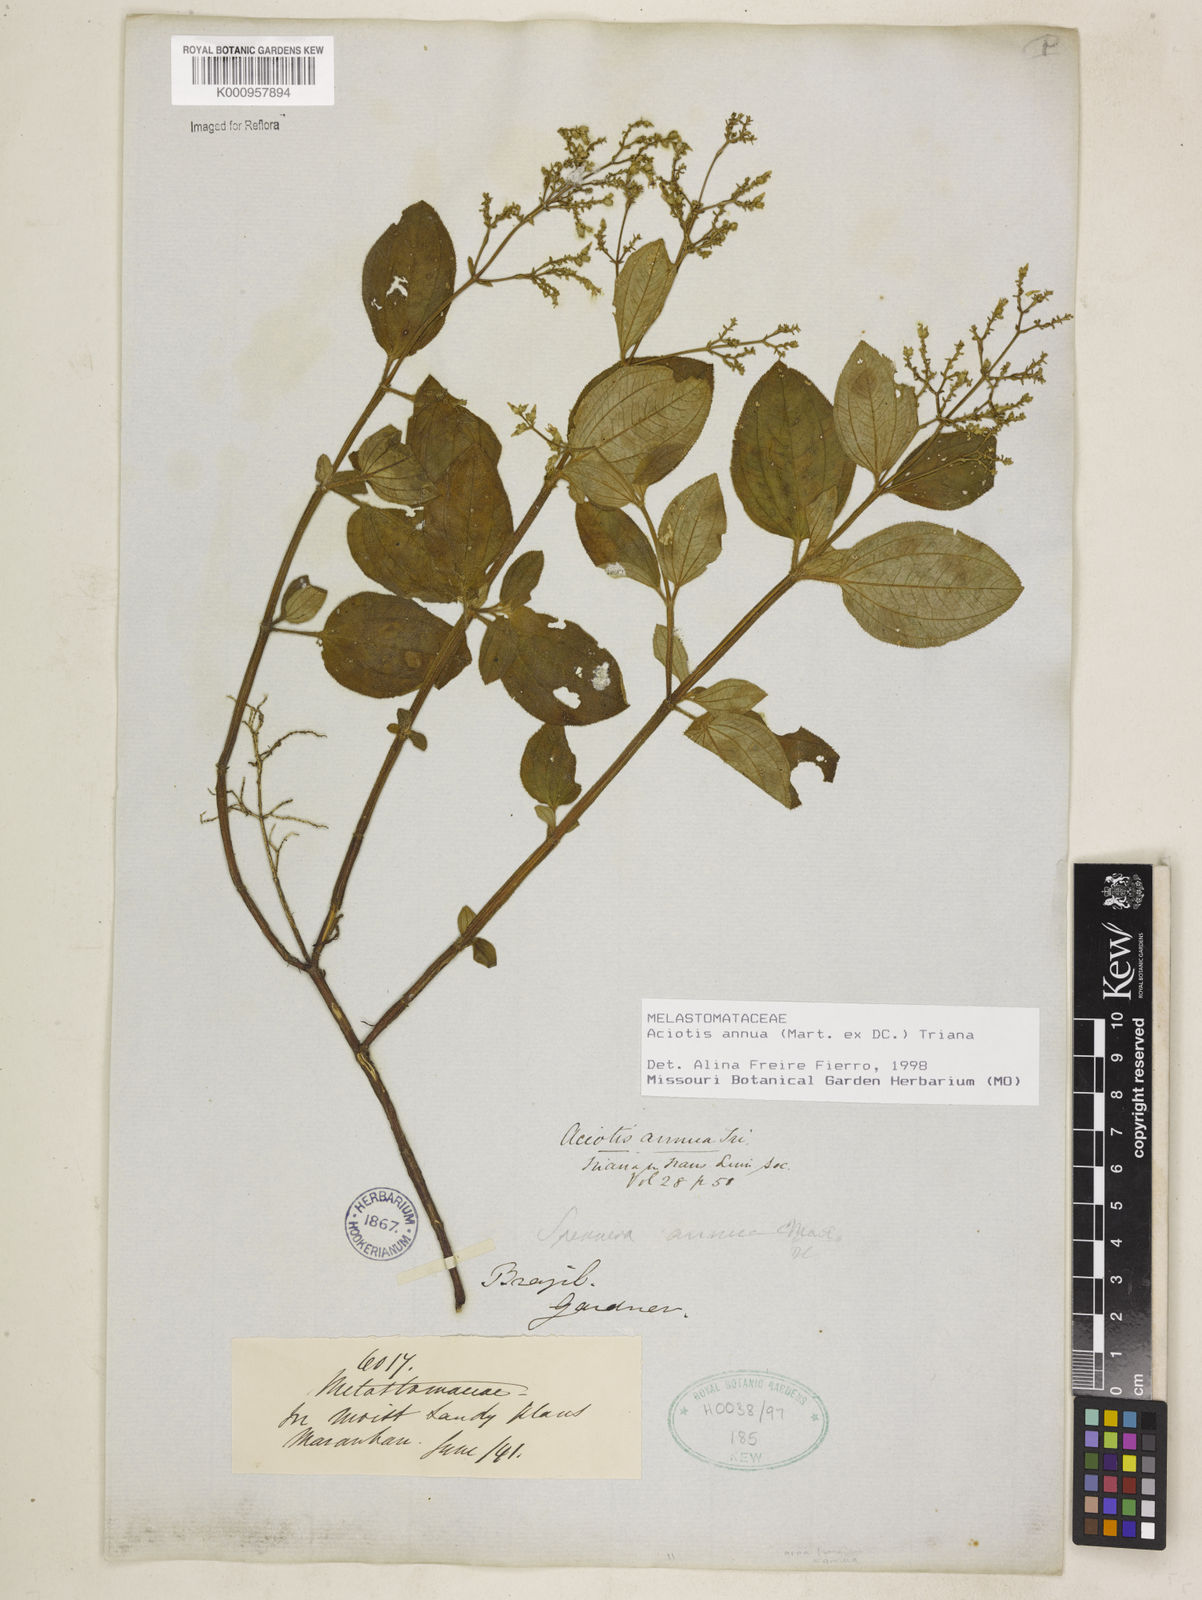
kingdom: Plantae
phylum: Tracheophyta
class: Magnoliopsida
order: Myrtales
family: Melastomataceae
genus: Aciotis
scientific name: Aciotis annua
